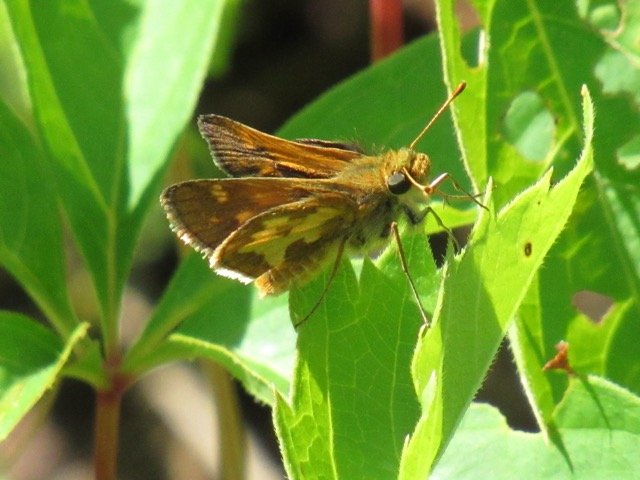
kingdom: Animalia
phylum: Arthropoda
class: Insecta
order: Lepidoptera
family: Hesperiidae
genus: Polites
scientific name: Polites coras
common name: Peck's Skipper
